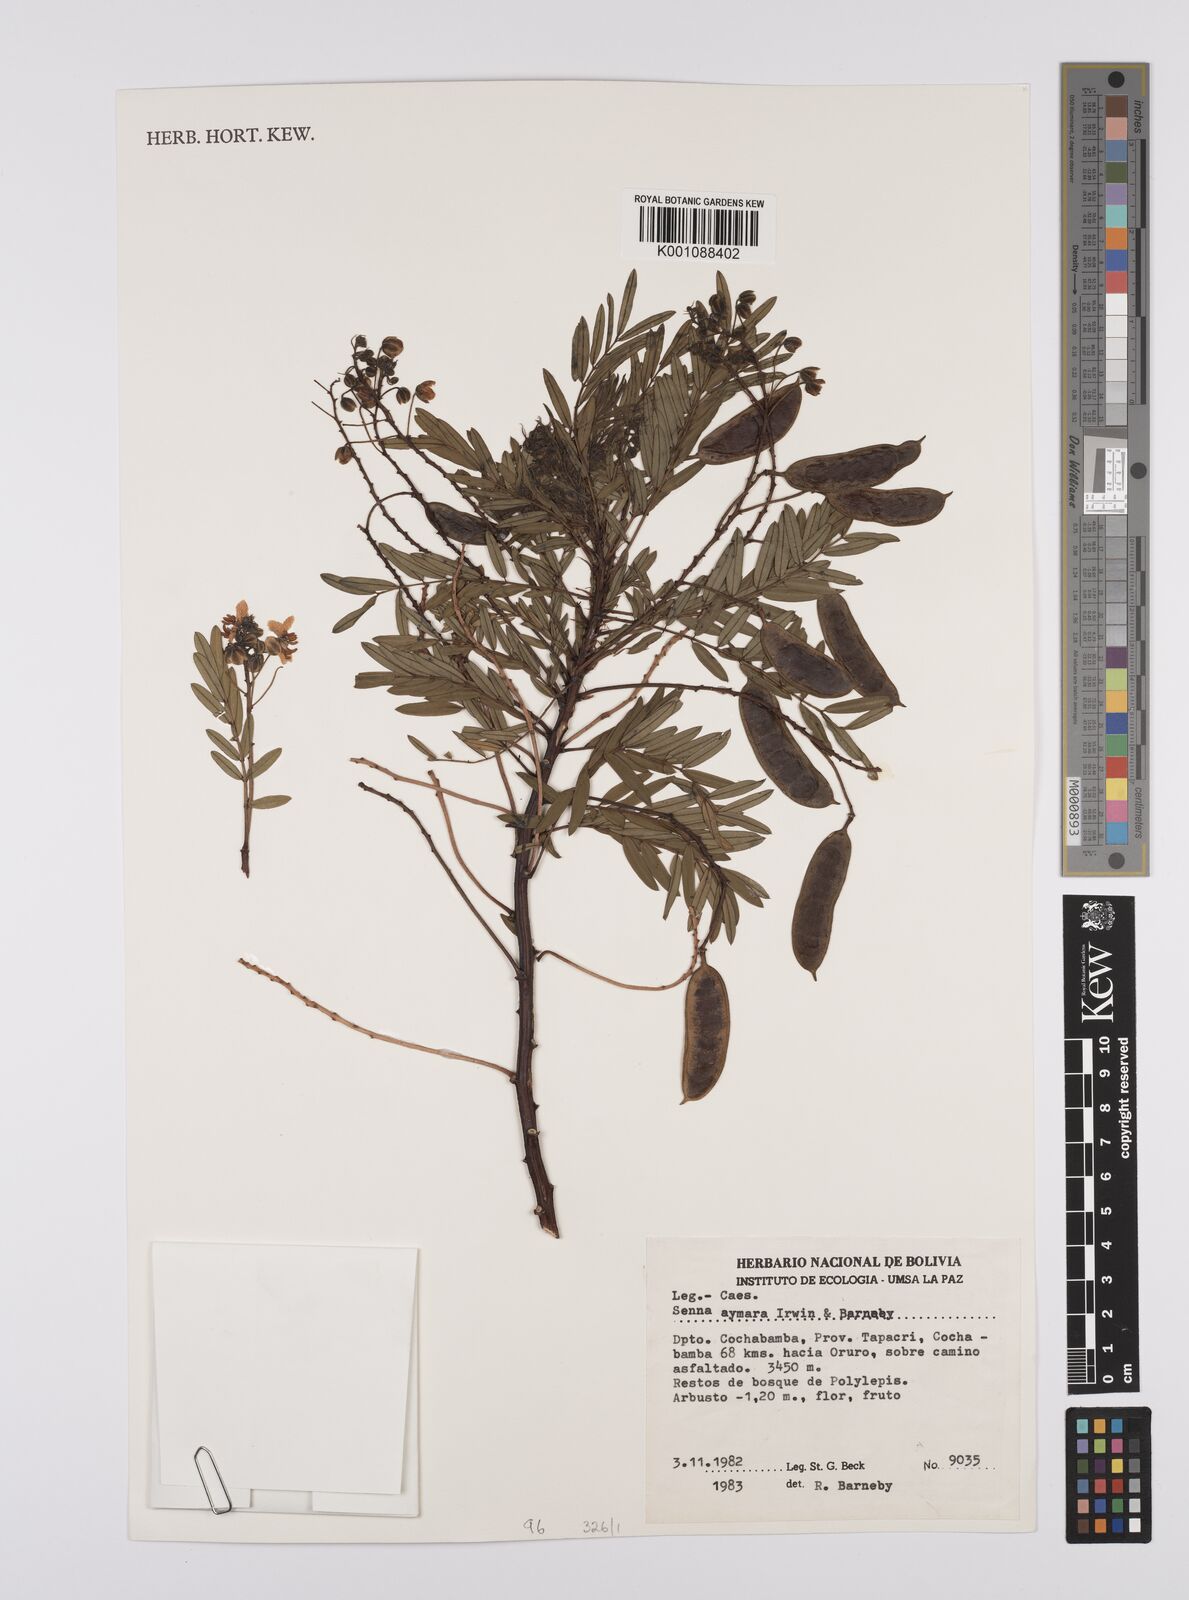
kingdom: Plantae
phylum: Tracheophyta
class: Magnoliopsida
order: Fabales
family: Fabaceae
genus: Senna
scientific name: Senna aymara
